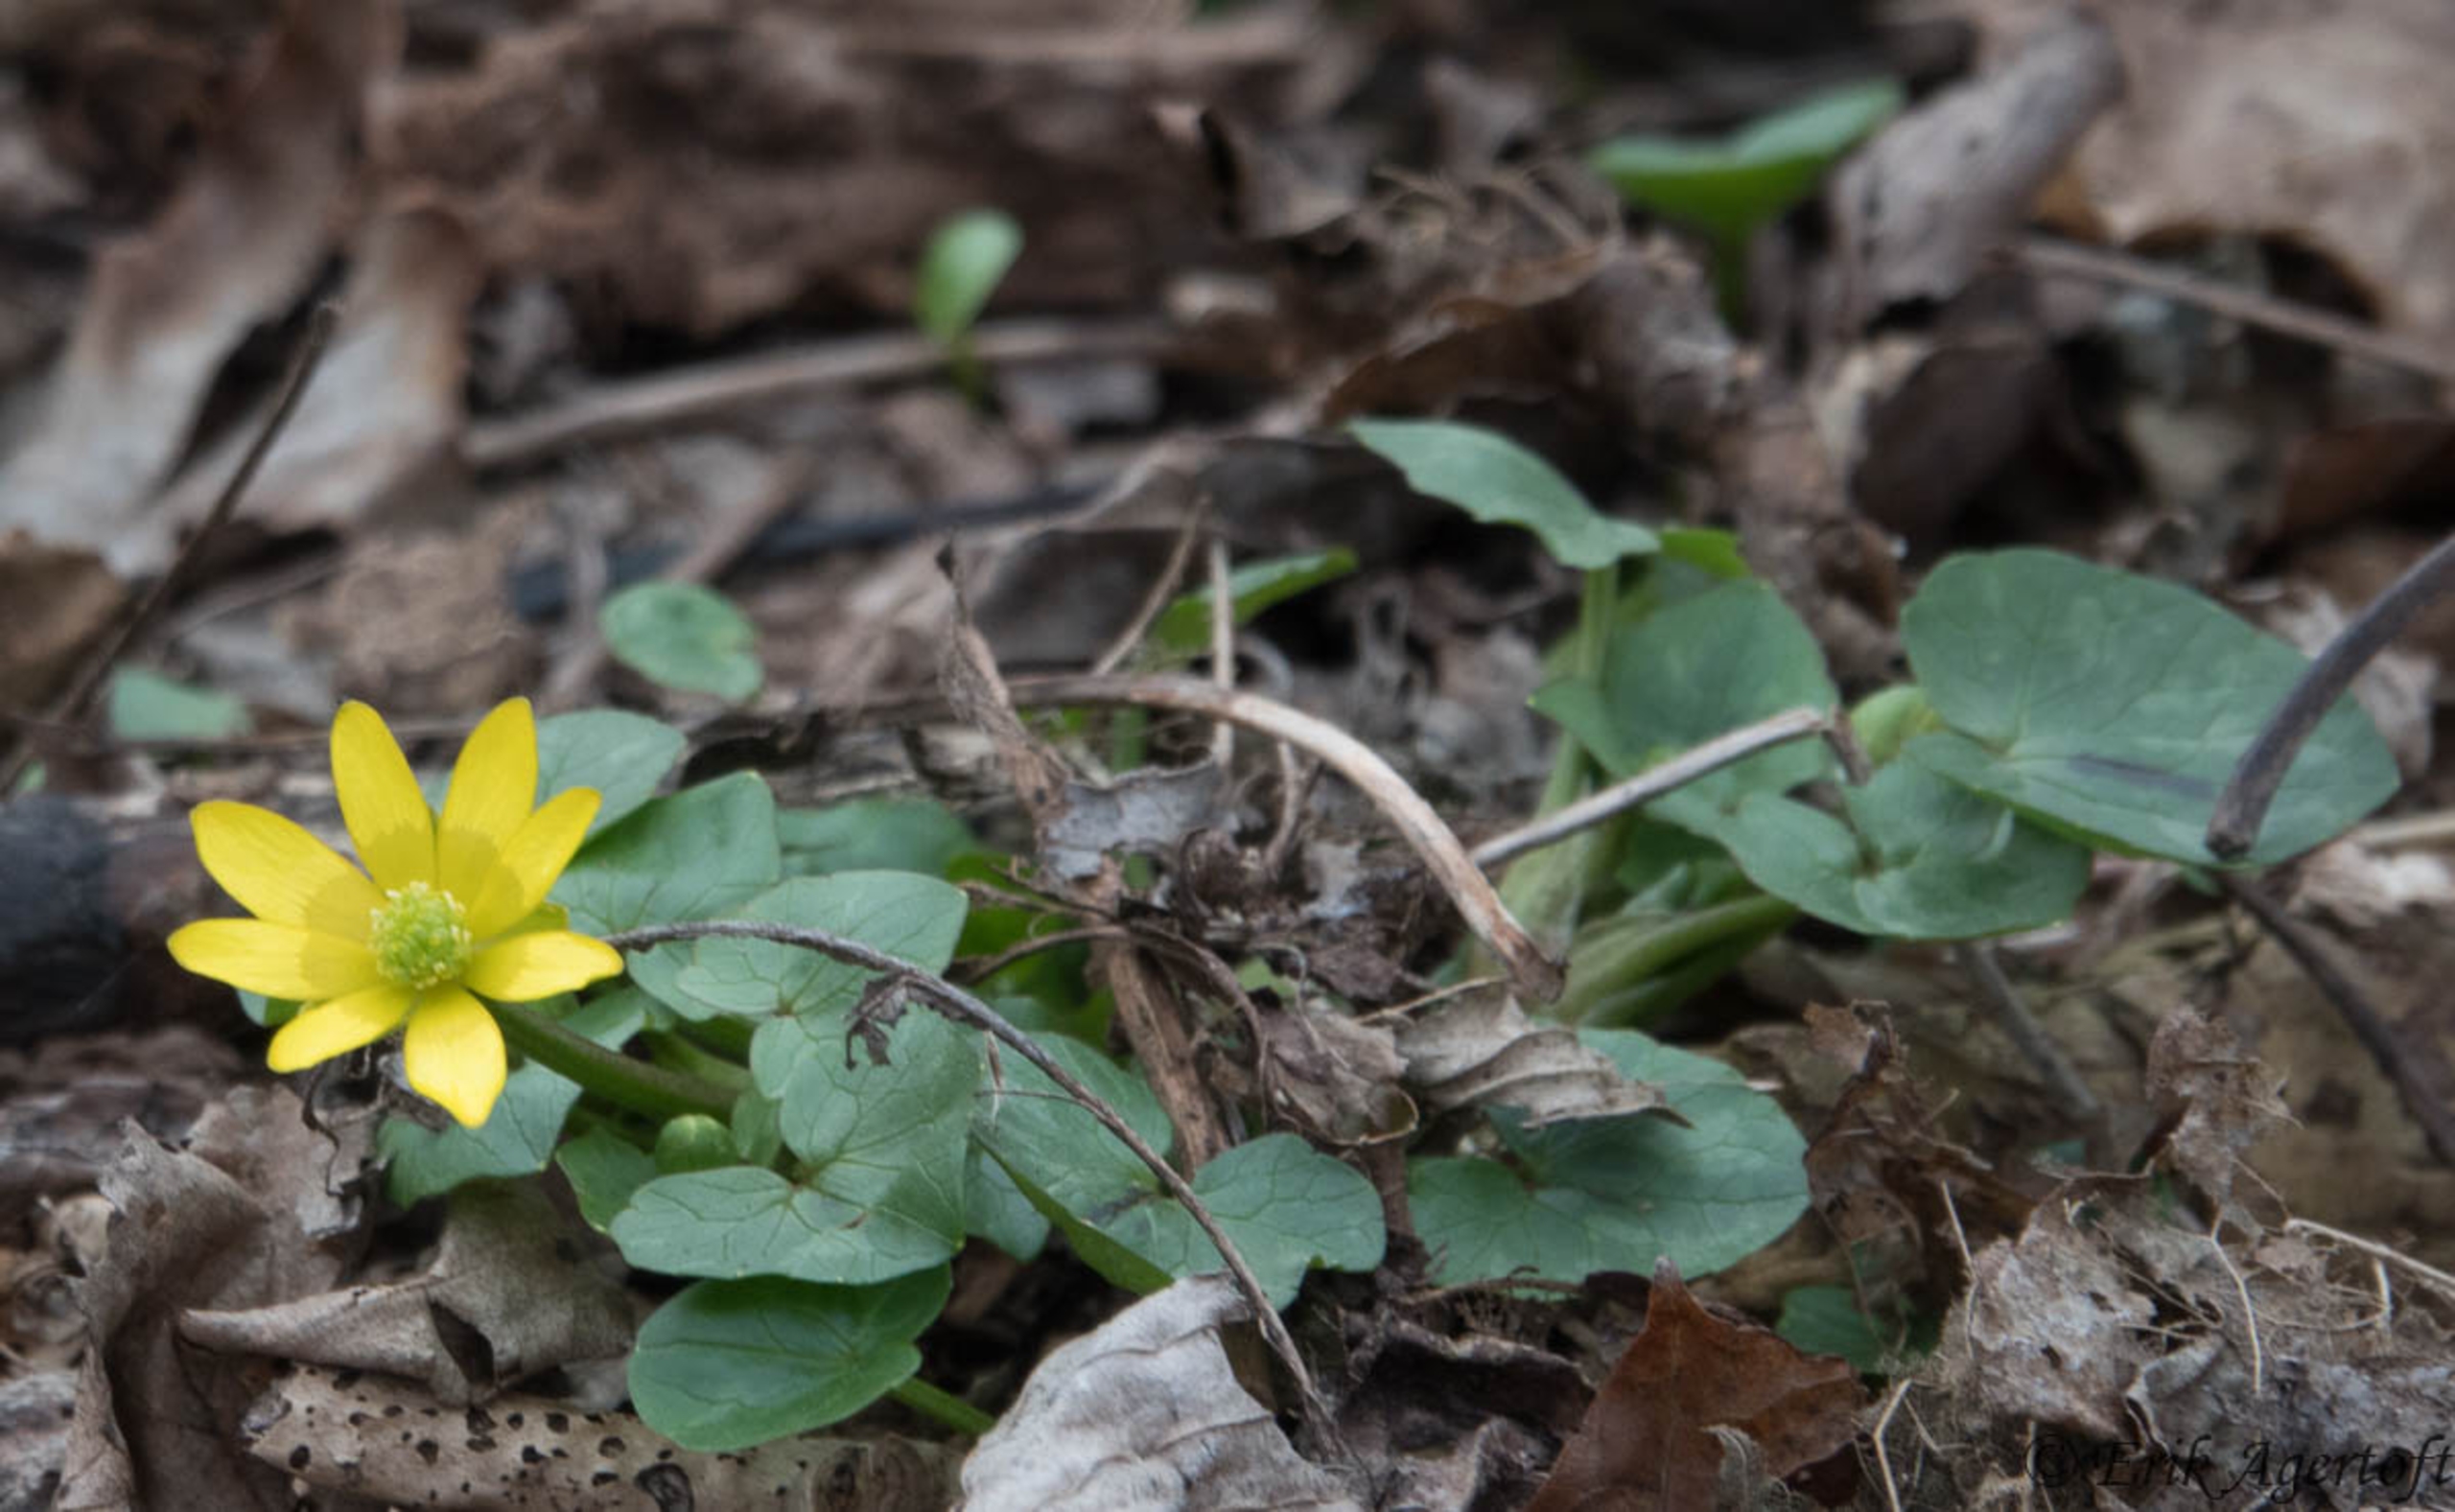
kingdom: Plantae
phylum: Tracheophyta
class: Magnoliopsida
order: Ranunculales
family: Ranunculaceae
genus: Ficaria
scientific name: Ficaria verna
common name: Vorterod
